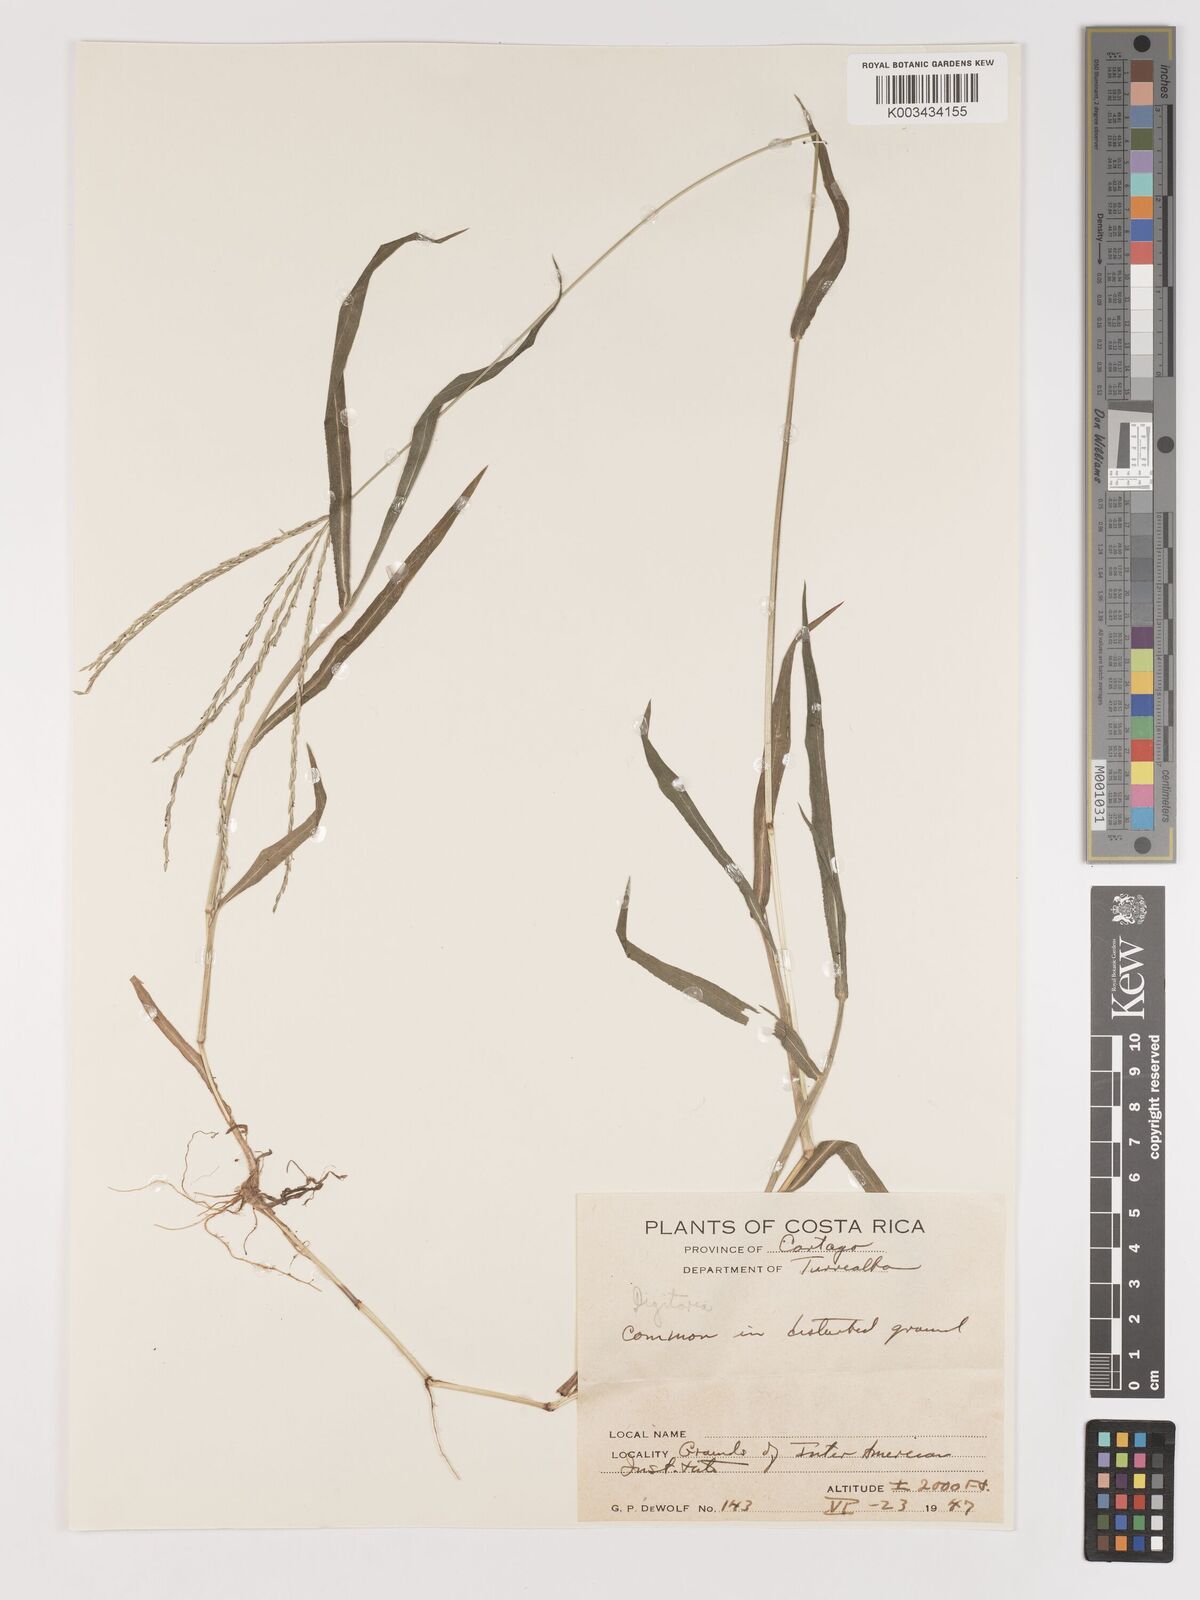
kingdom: Plantae
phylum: Tracheophyta
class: Liliopsida
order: Poales
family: Poaceae
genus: Digitaria
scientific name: Digitaria ciliaris
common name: Tropical finger-grass
